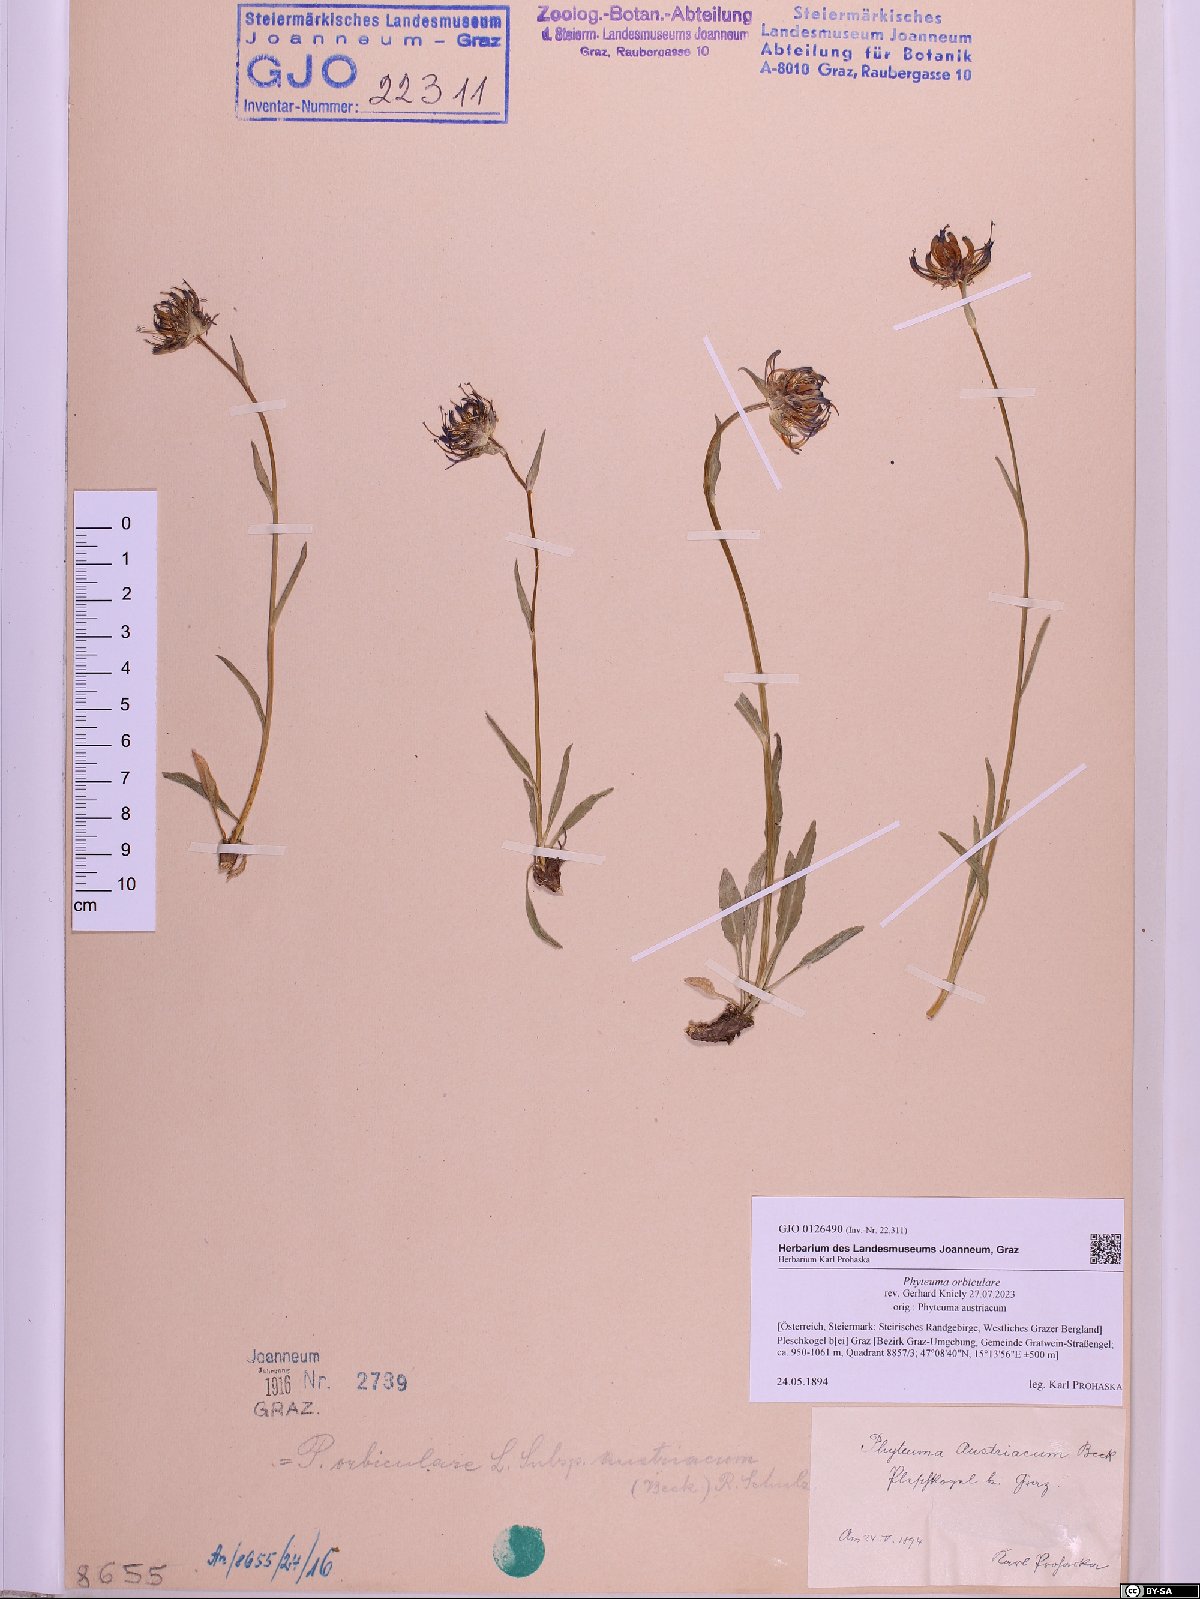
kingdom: Plantae
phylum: Tracheophyta
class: Magnoliopsida
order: Asterales
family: Campanulaceae
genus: Phyteuma
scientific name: Phyteuma orbiculare
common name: Round-headed rampion
